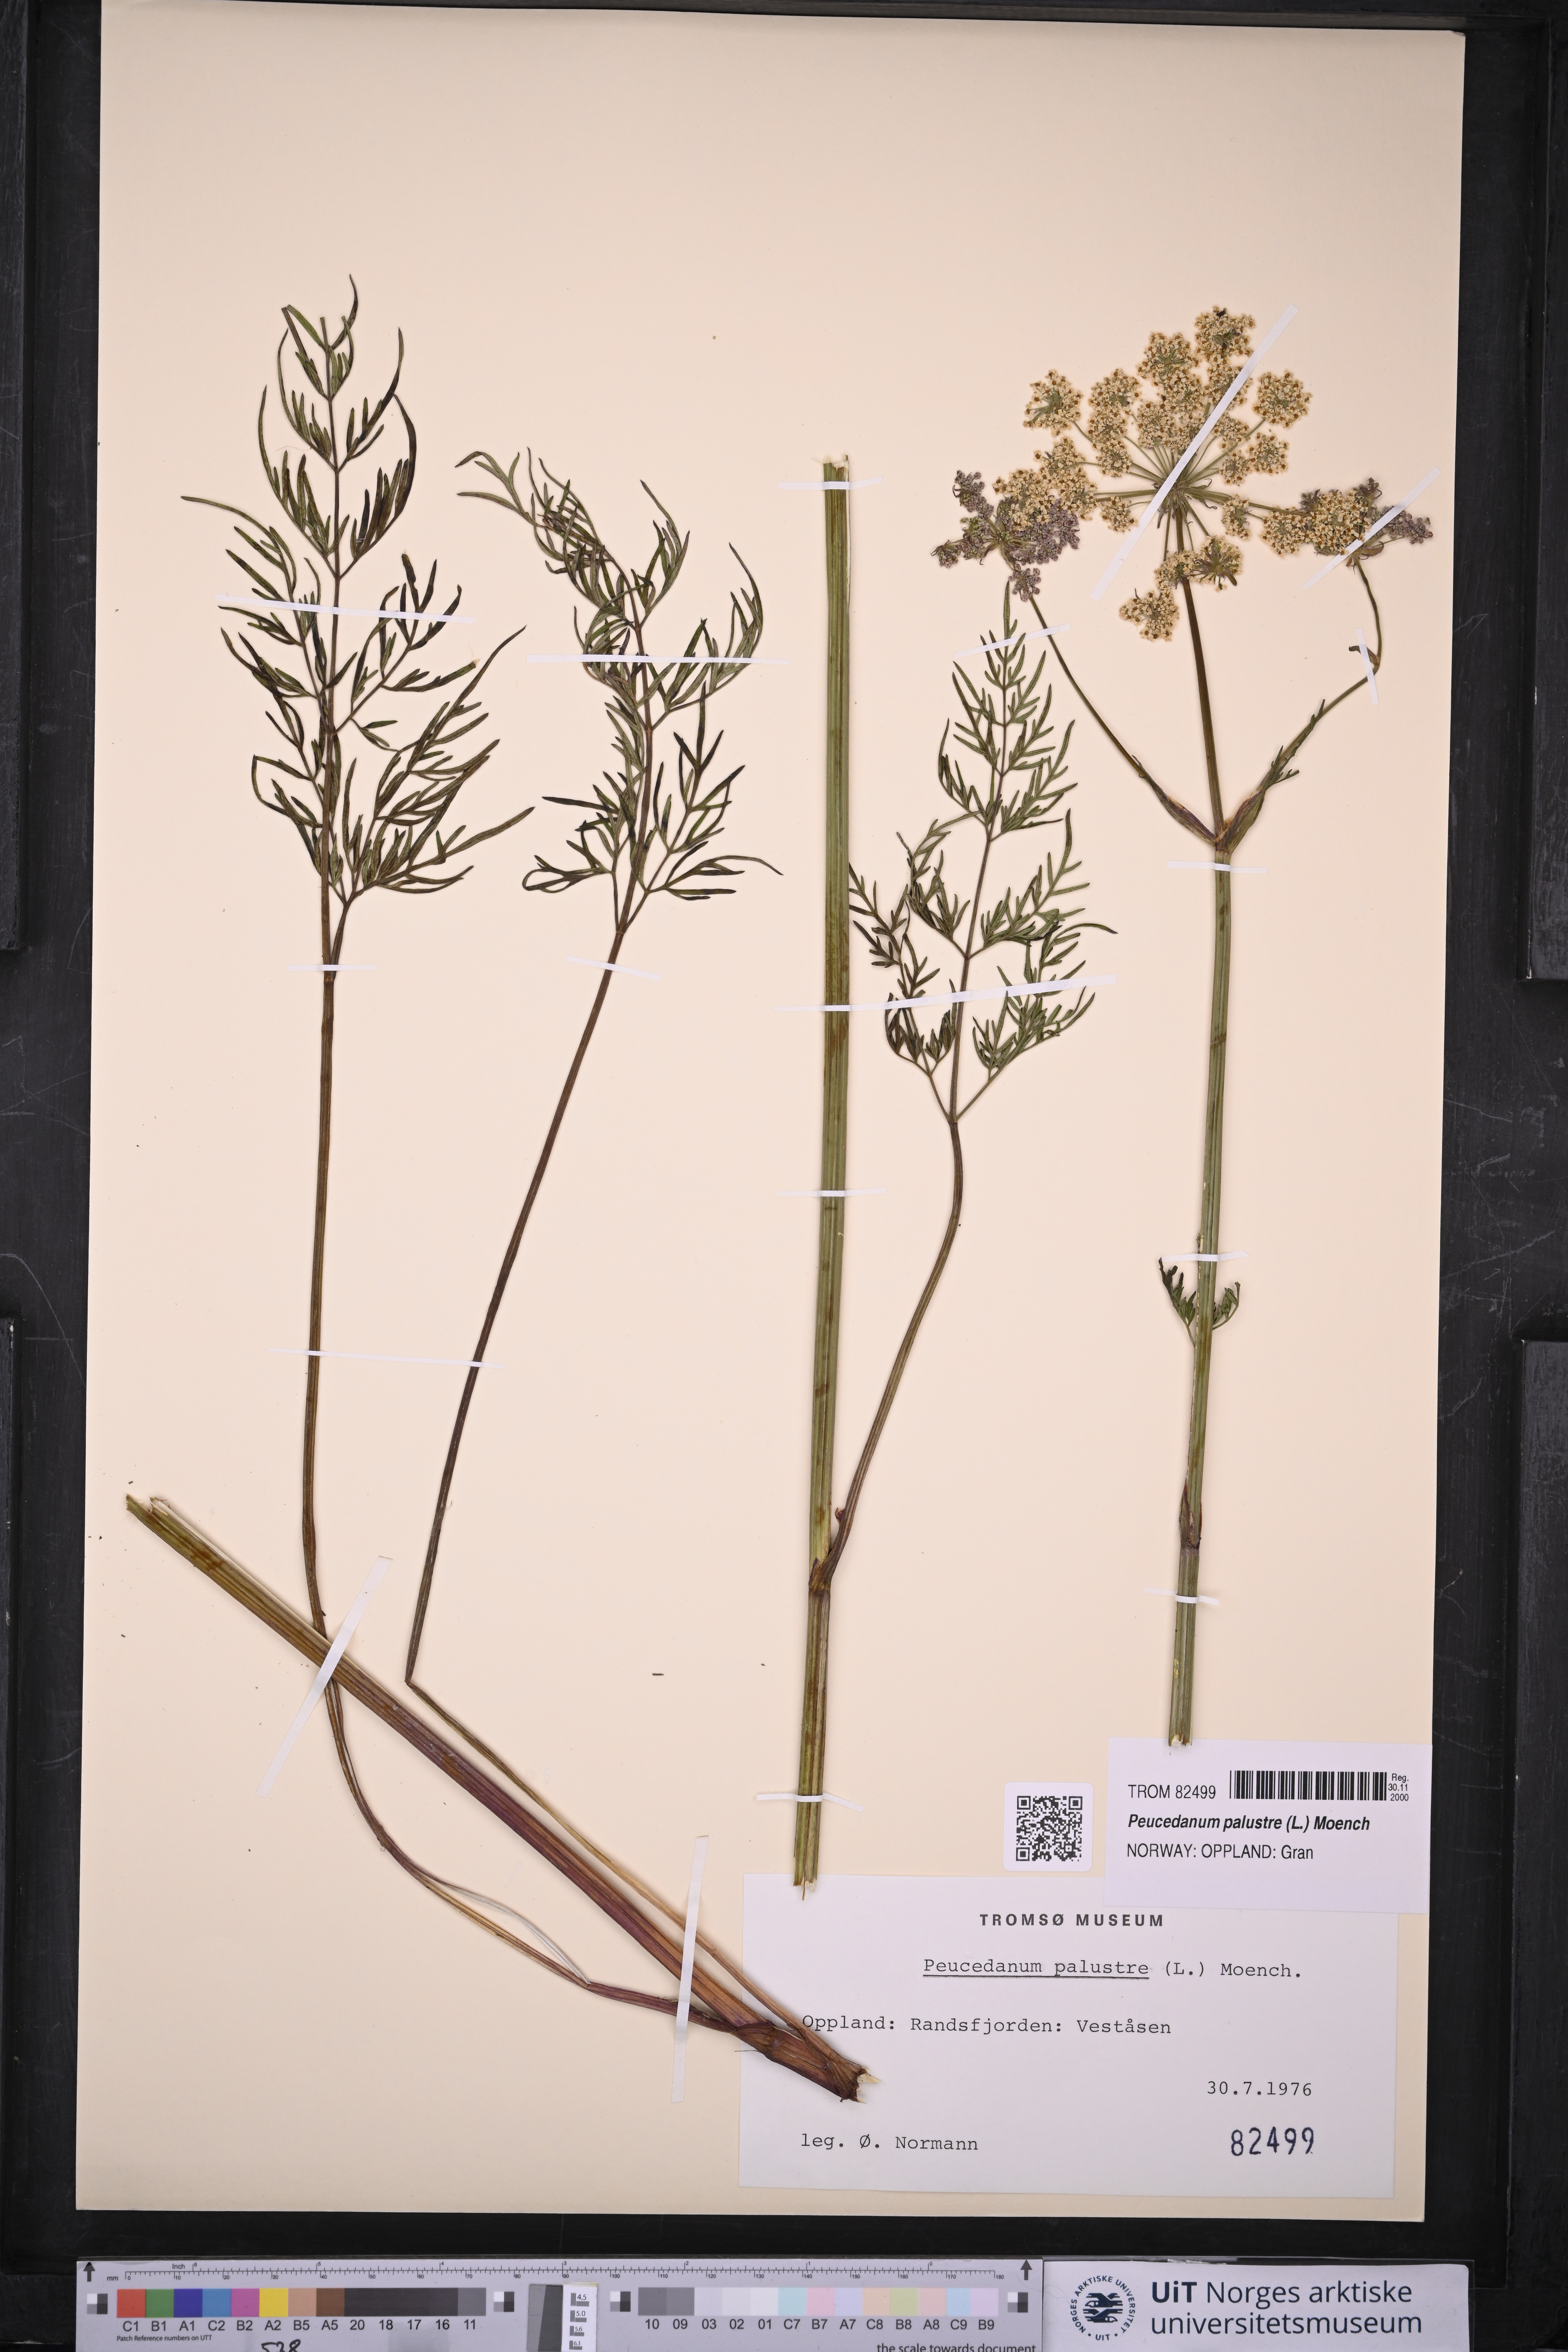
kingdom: Plantae
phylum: Tracheophyta
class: Magnoliopsida
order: Apiales
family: Apiaceae
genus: Thysselinum
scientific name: Thysselinum palustre
